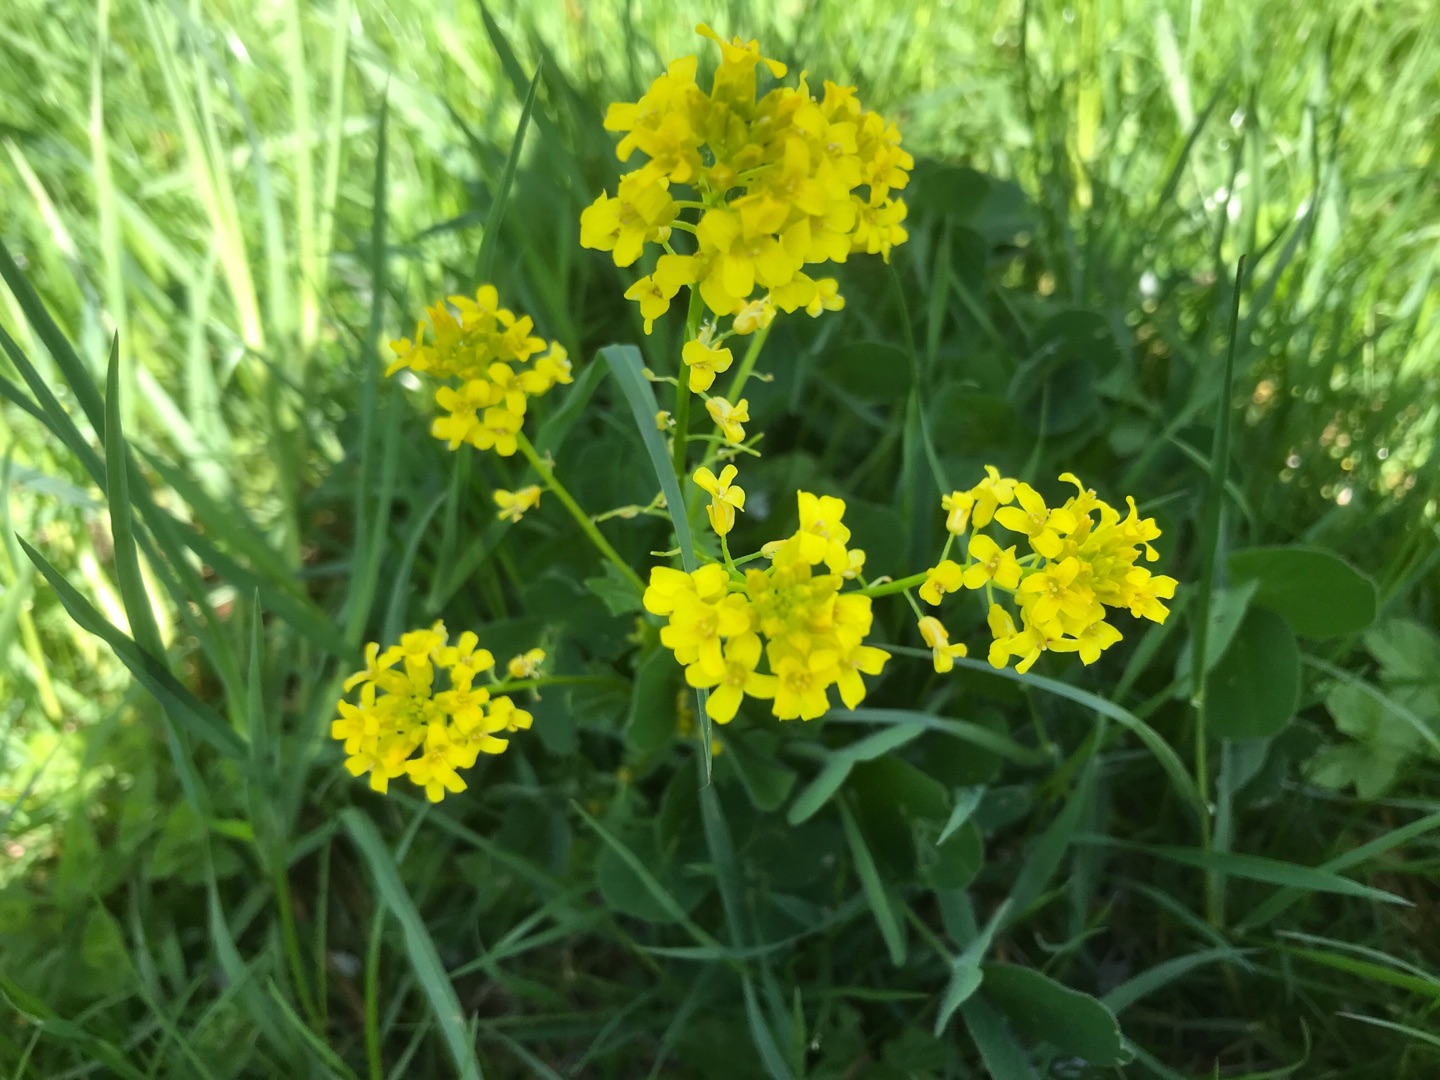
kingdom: Plantae
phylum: Tracheophyta
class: Magnoliopsida
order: Brassicales
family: Brassicaceae
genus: Barbarea
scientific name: Barbarea vulgaris
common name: Udspærret vinterkarse
